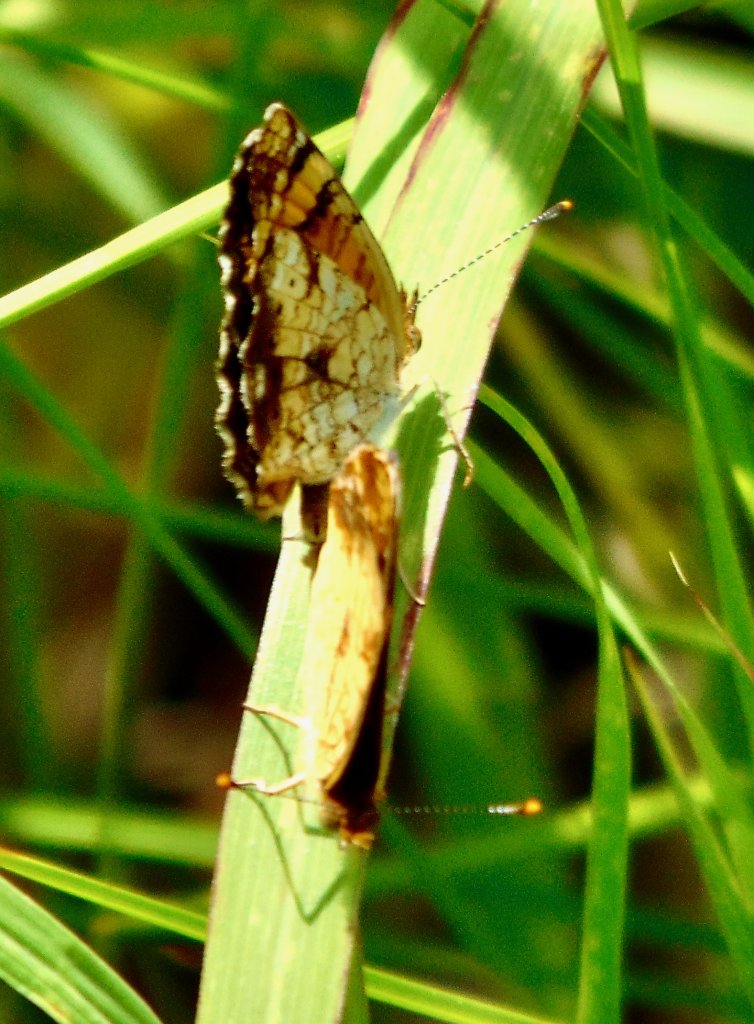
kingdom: Animalia
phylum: Arthropoda
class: Insecta
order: Lepidoptera
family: Nymphalidae
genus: Phyciodes
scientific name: Phyciodes tharos
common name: Pearl Crescent
